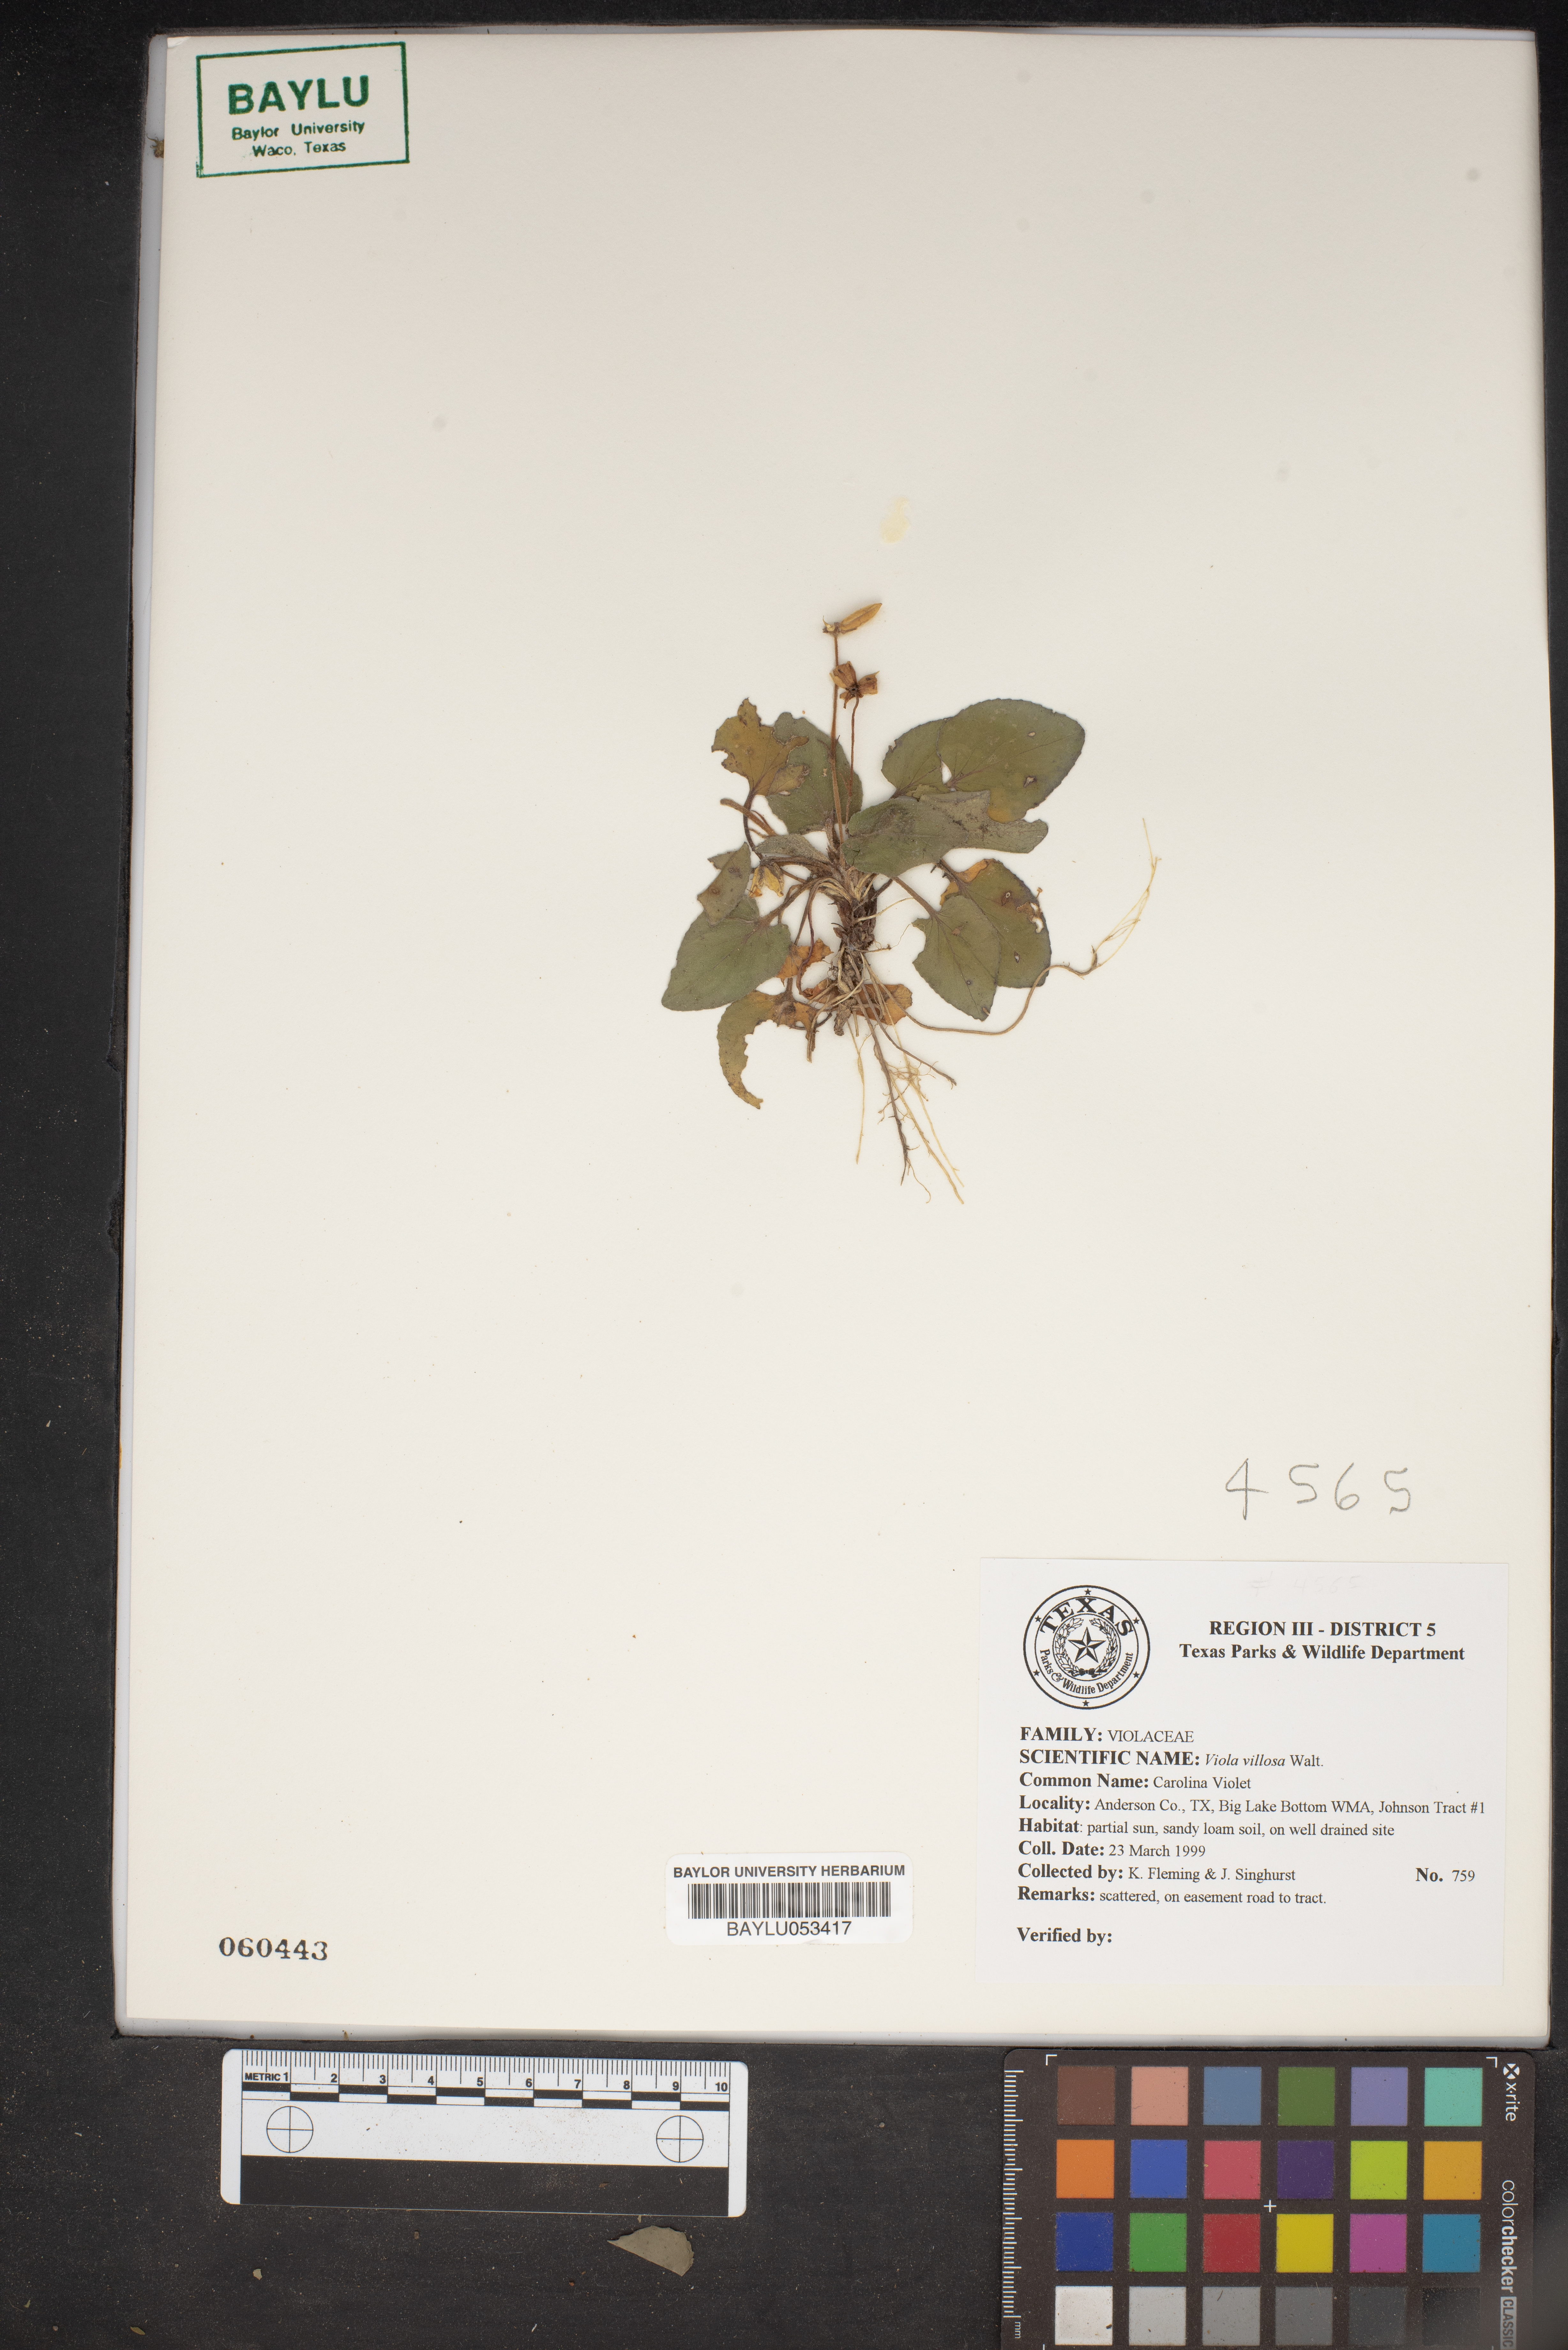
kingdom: Plantae
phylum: Tracheophyta
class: Magnoliopsida
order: Malpighiales
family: Violaceae
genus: Viola
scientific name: Viola villosa
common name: Carolina violet
